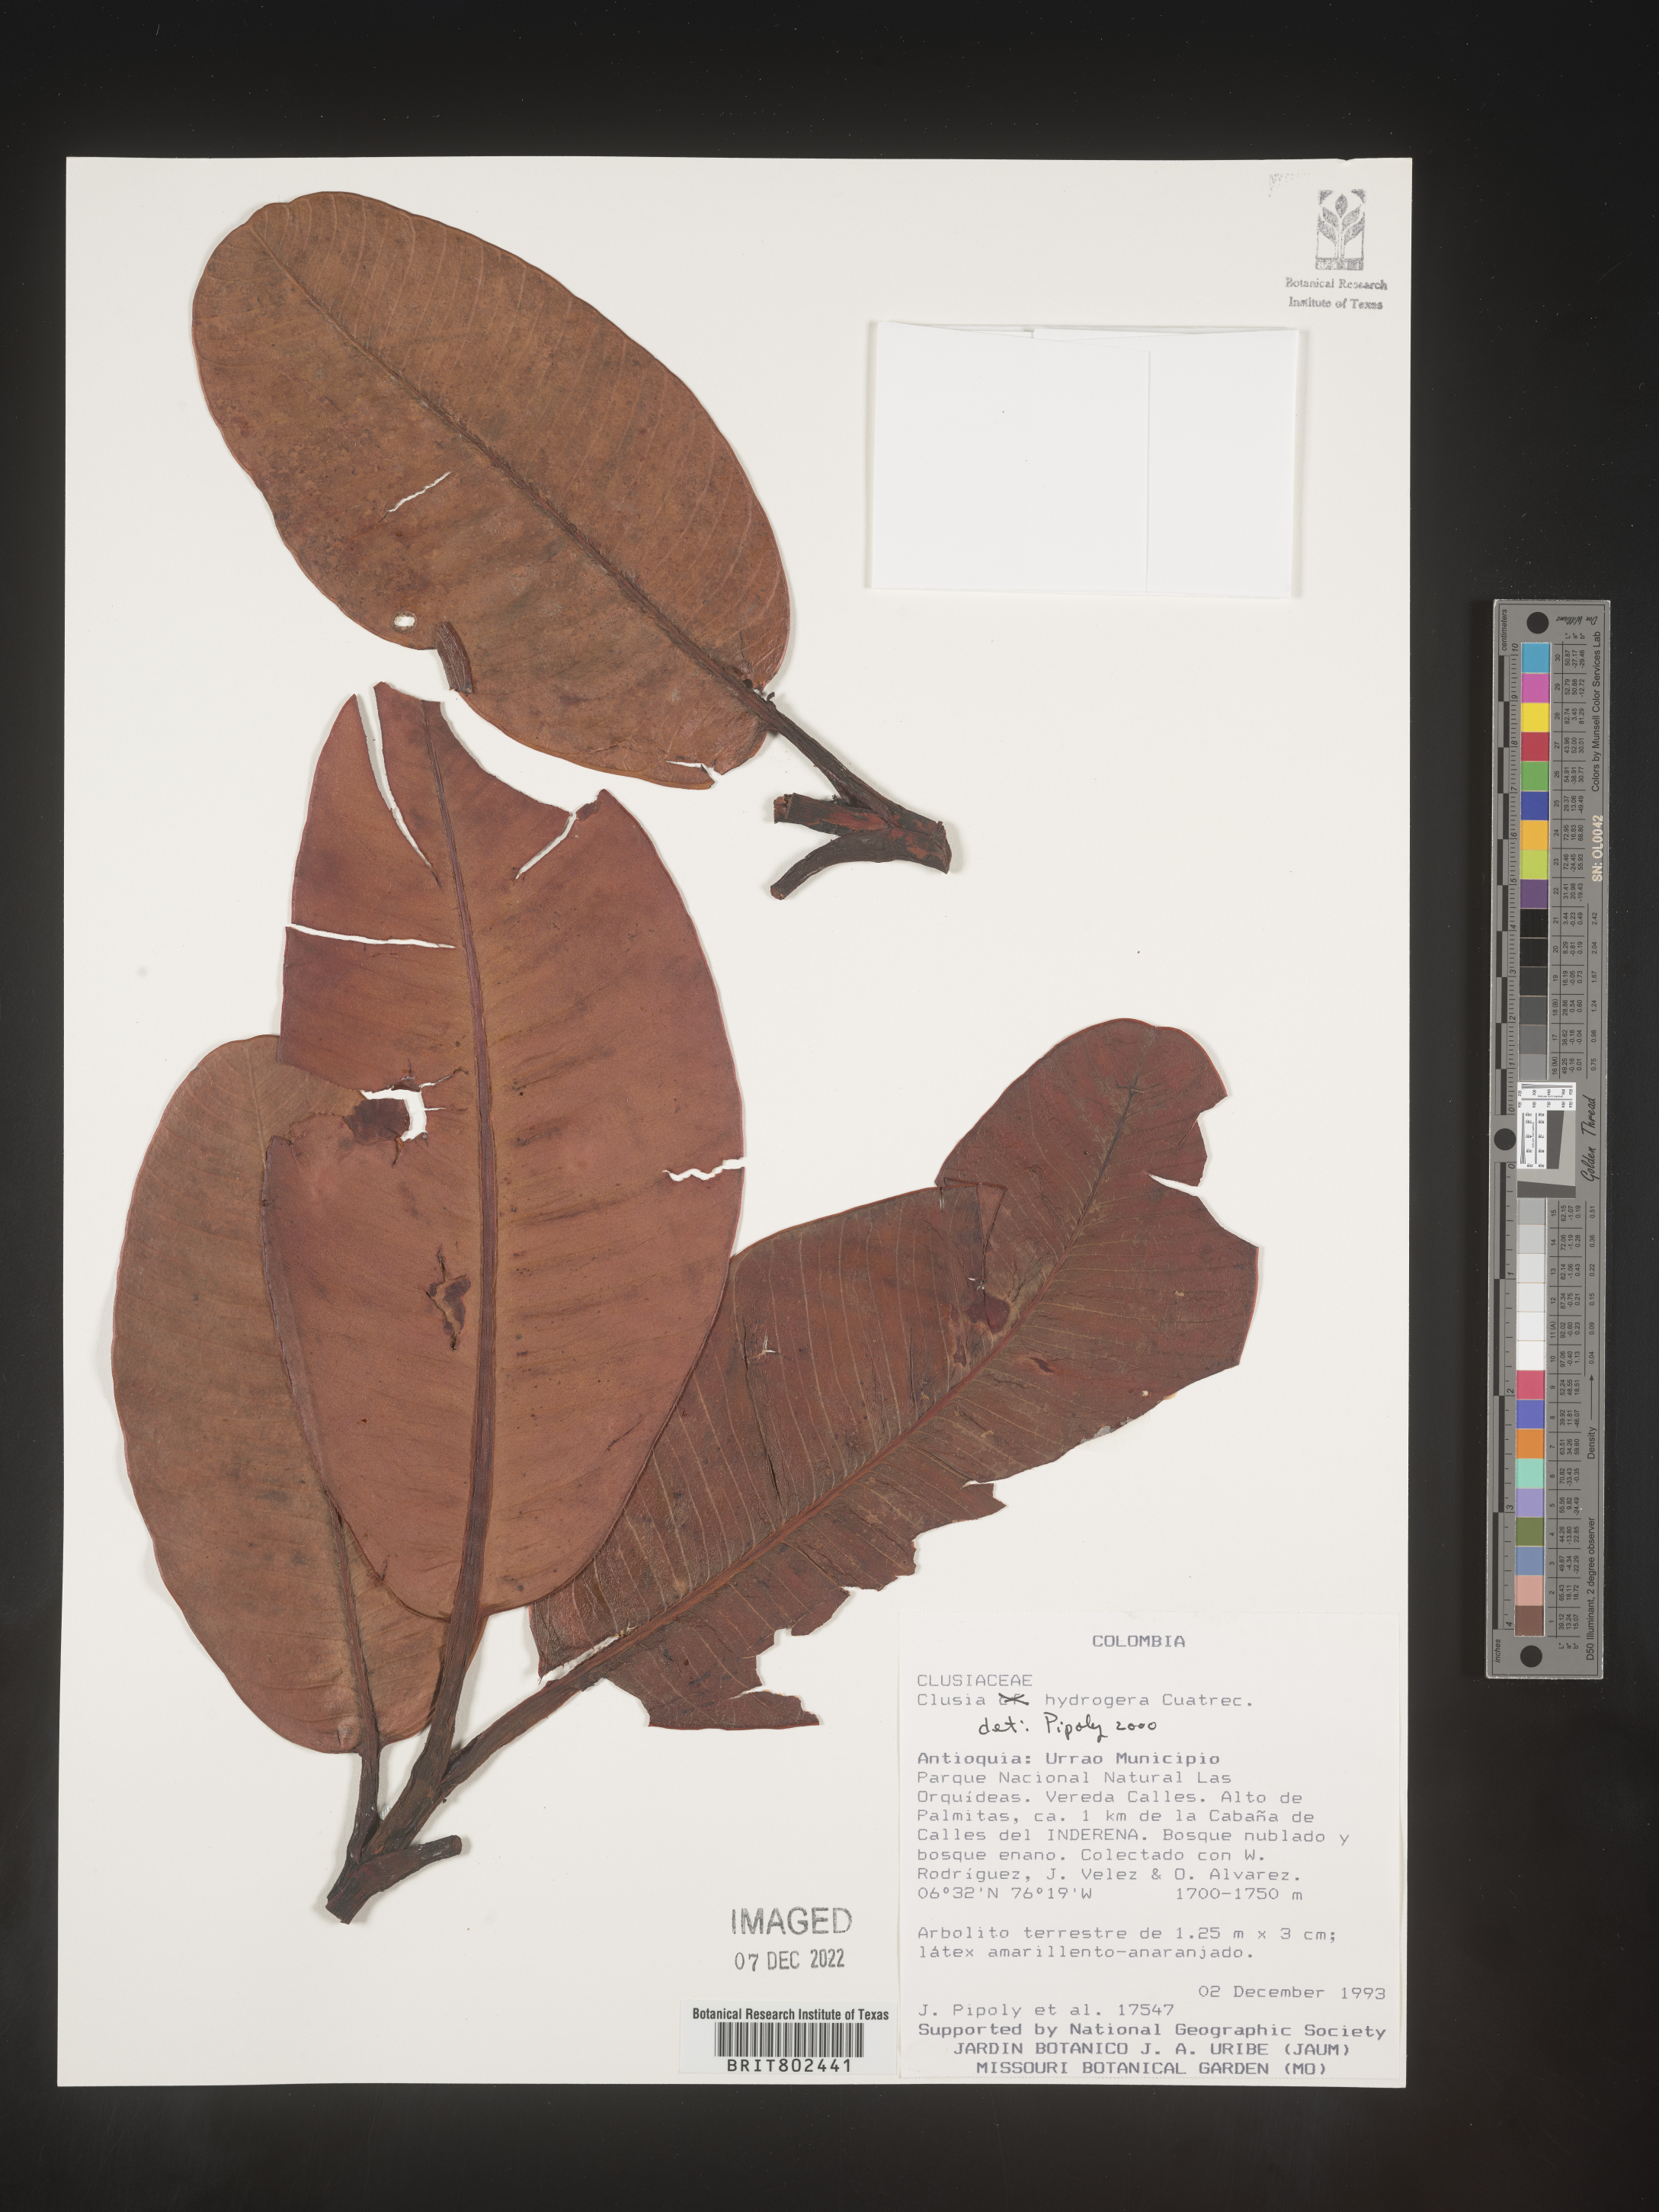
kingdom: Plantae
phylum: Tracheophyta
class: Magnoliopsida
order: Malpighiales
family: Clusiaceae
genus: Clusia
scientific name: Clusia hydrogera
